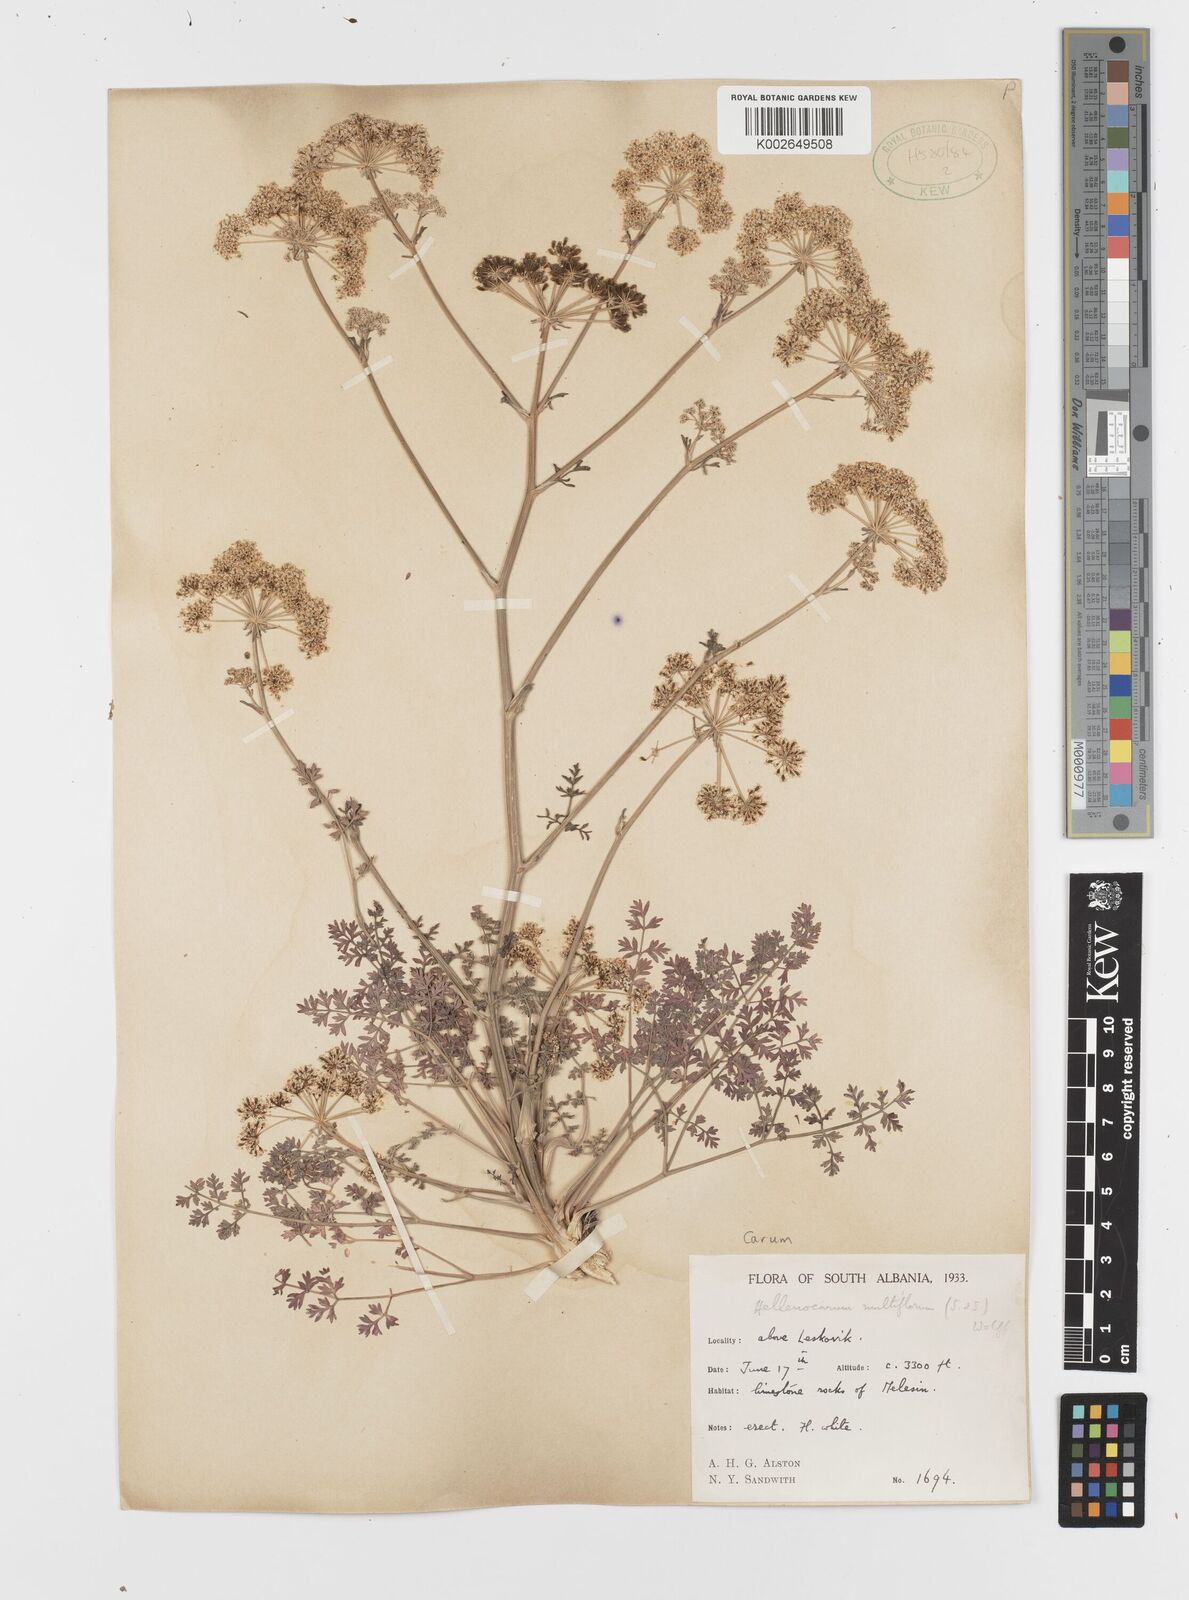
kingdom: Plantae
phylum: Tracheophyta
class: Magnoliopsida
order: Apiales
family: Apiaceae
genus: Hellenocarum
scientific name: Hellenocarum multiflorum
